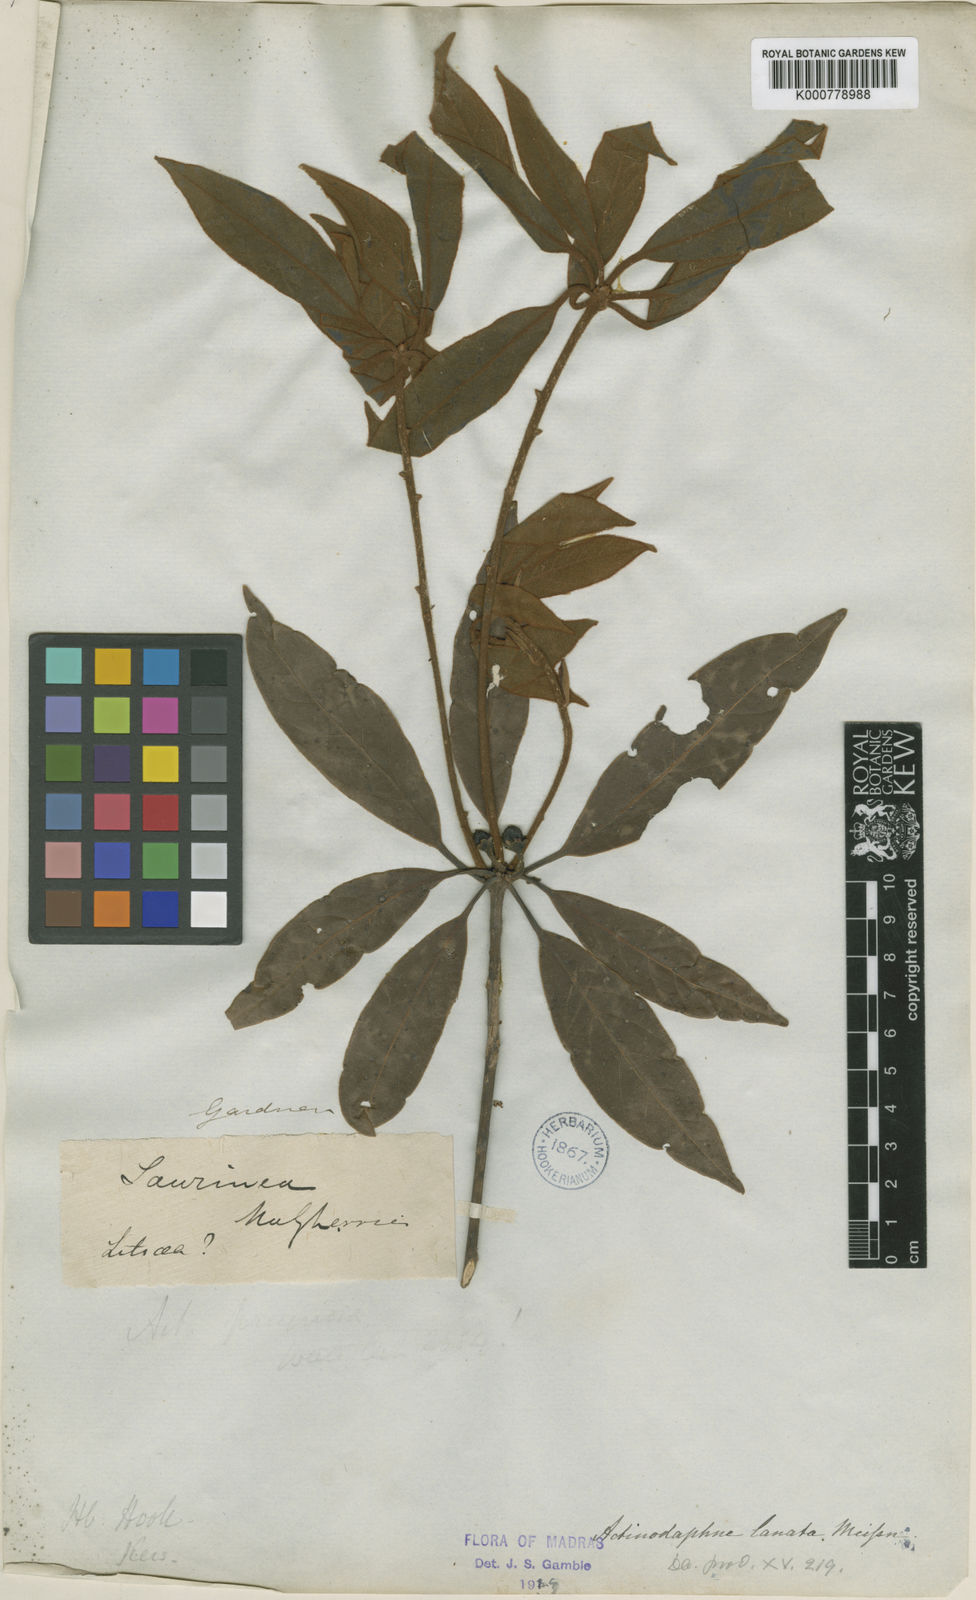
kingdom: Plantae
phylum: Tracheophyta
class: Magnoliopsida
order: Laurales
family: Lauraceae
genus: Actinodaphne
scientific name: Actinodaphne lanata
